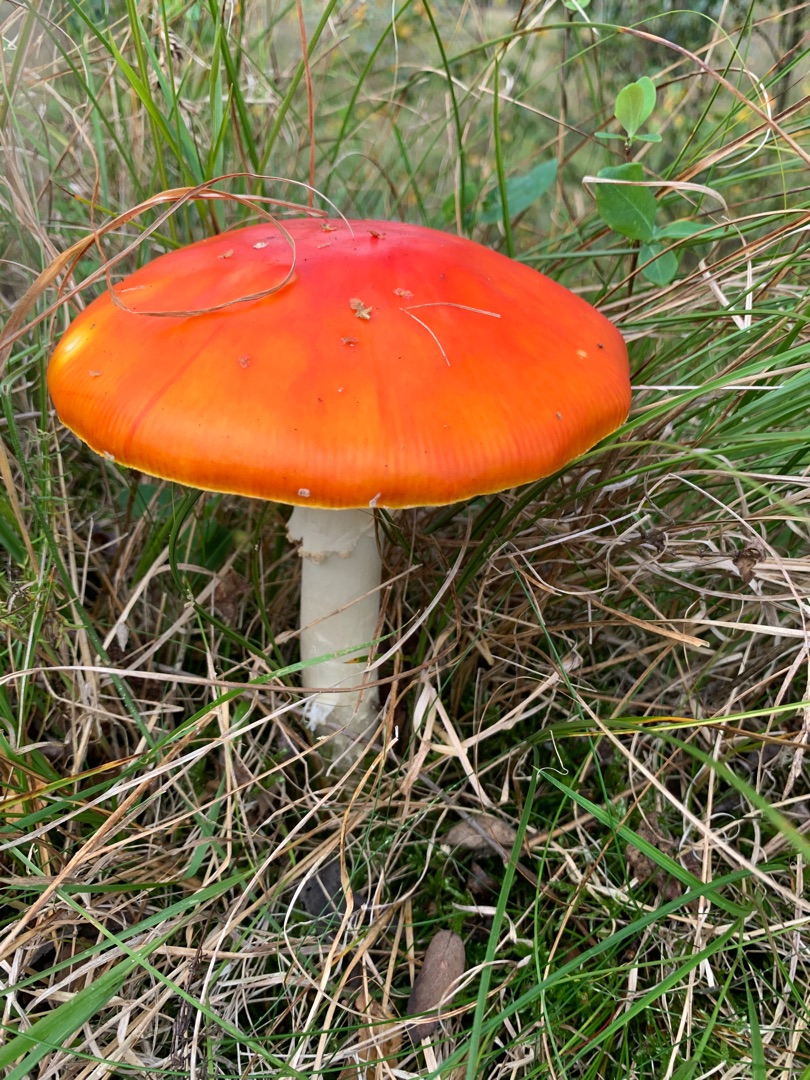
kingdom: Fungi
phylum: Basidiomycota
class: Agaricomycetes
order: Agaricales
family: Amanitaceae
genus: Amanita
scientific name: Amanita muscaria
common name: Rød fluesvamp
